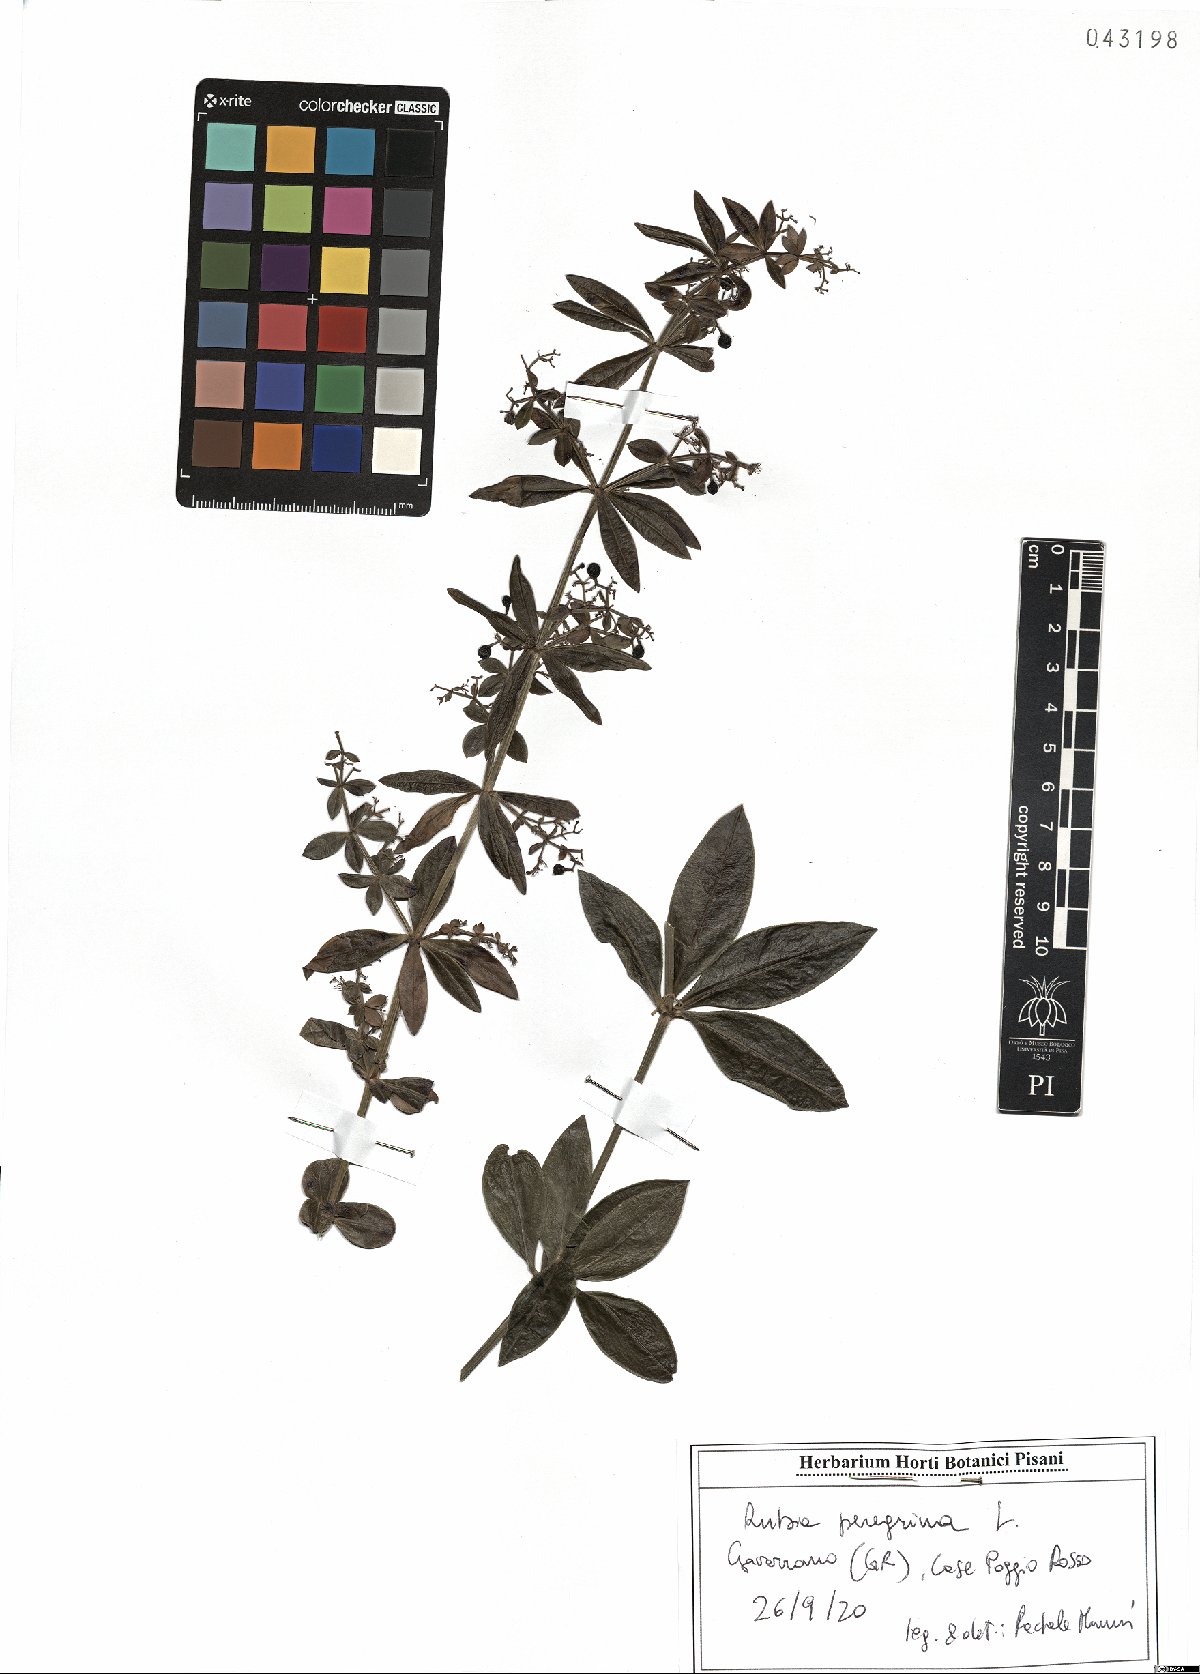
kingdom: Plantae
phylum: Tracheophyta
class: Magnoliopsida
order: Gentianales
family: Rubiaceae
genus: Rubia
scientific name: Rubia peregrina
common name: Wild madder
